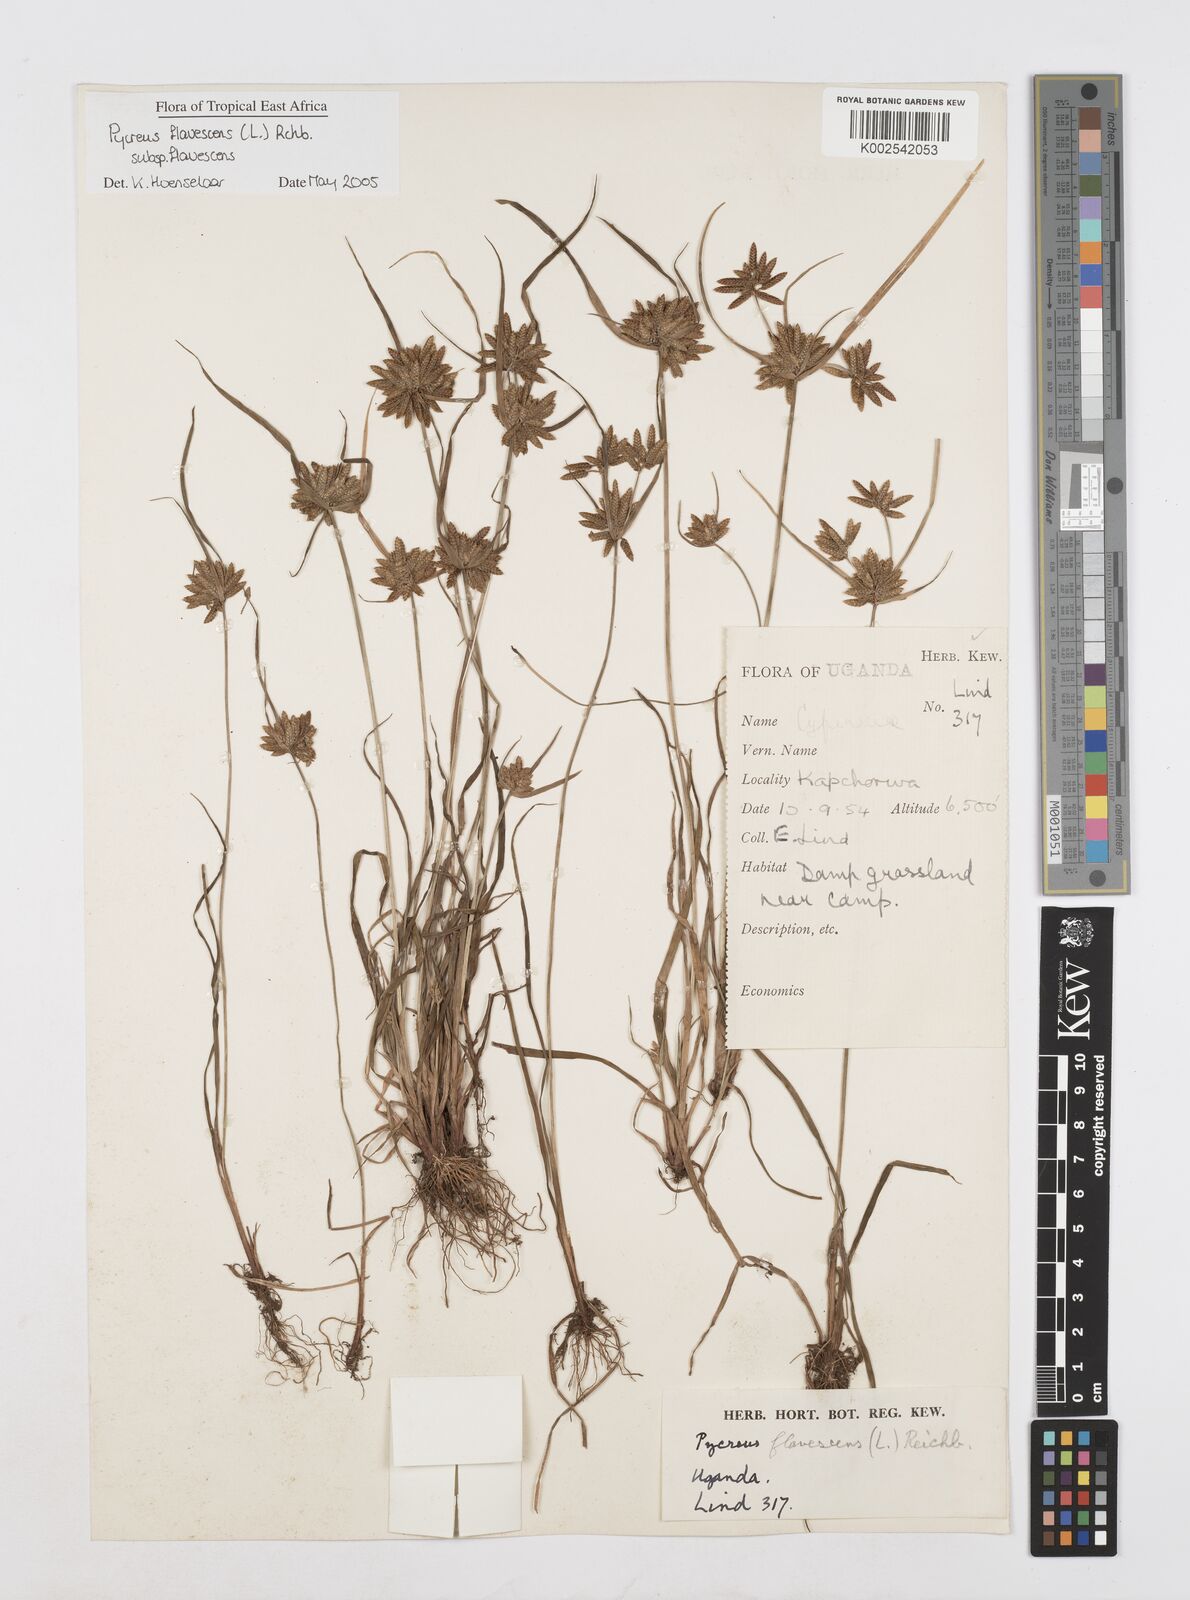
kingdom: Plantae
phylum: Tracheophyta
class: Liliopsida
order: Poales
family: Cyperaceae
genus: Cyperus
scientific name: Cyperus flavescens
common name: Yellow galingale
